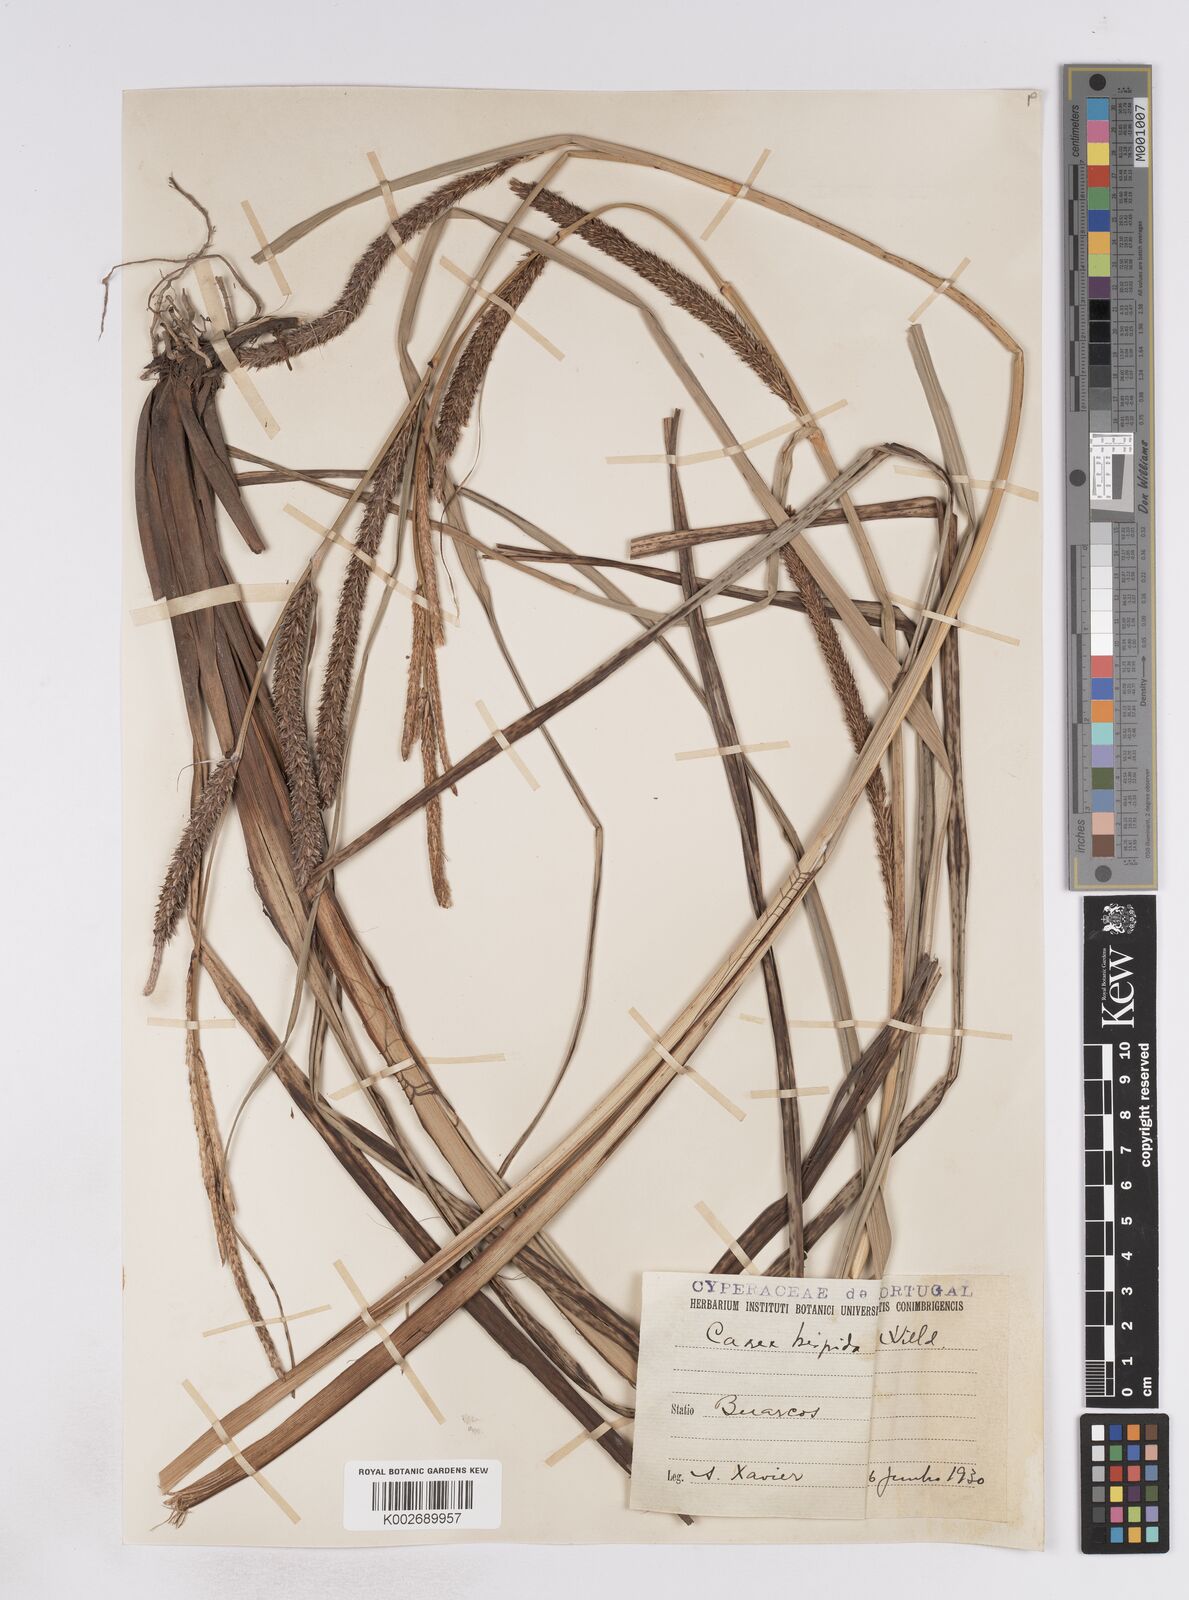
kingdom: Plantae
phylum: Tracheophyta
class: Liliopsida
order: Poales
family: Cyperaceae
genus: Carex
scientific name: Carex hispida
